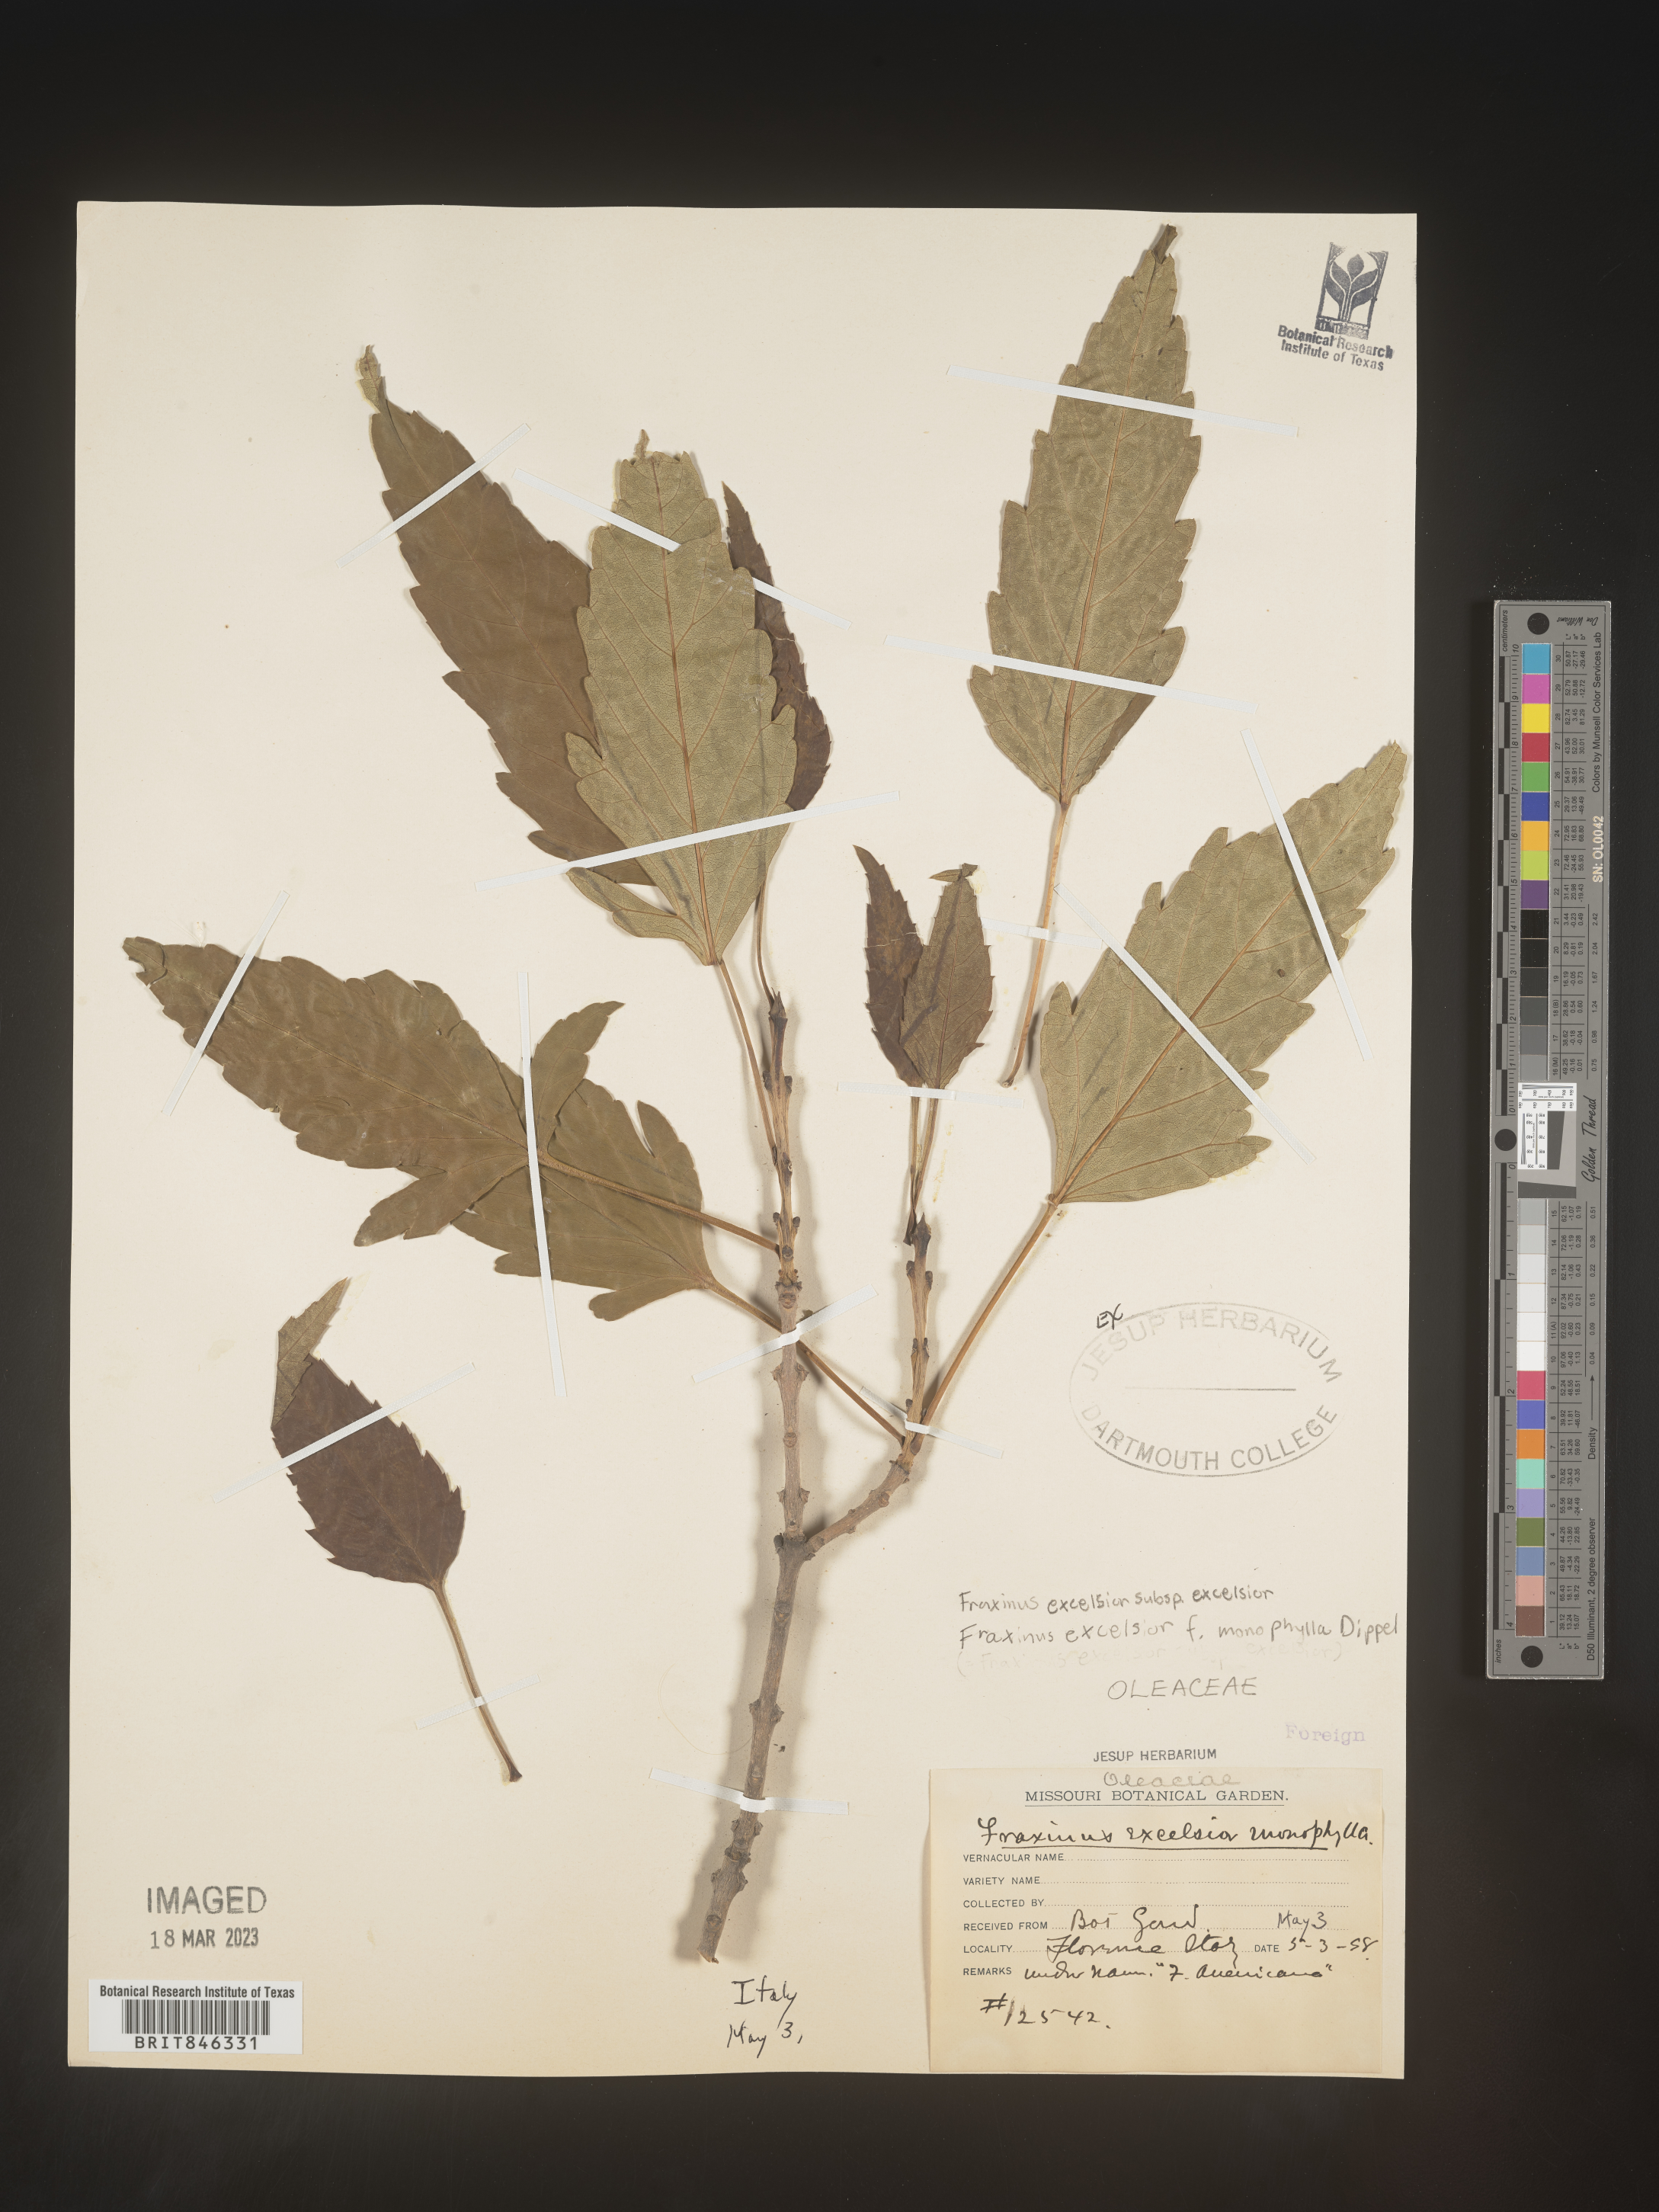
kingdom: Plantae
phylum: Tracheophyta
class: Magnoliopsida
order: Lamiales
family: Oleaceae
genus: Fraxinus
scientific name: Fraxinus
